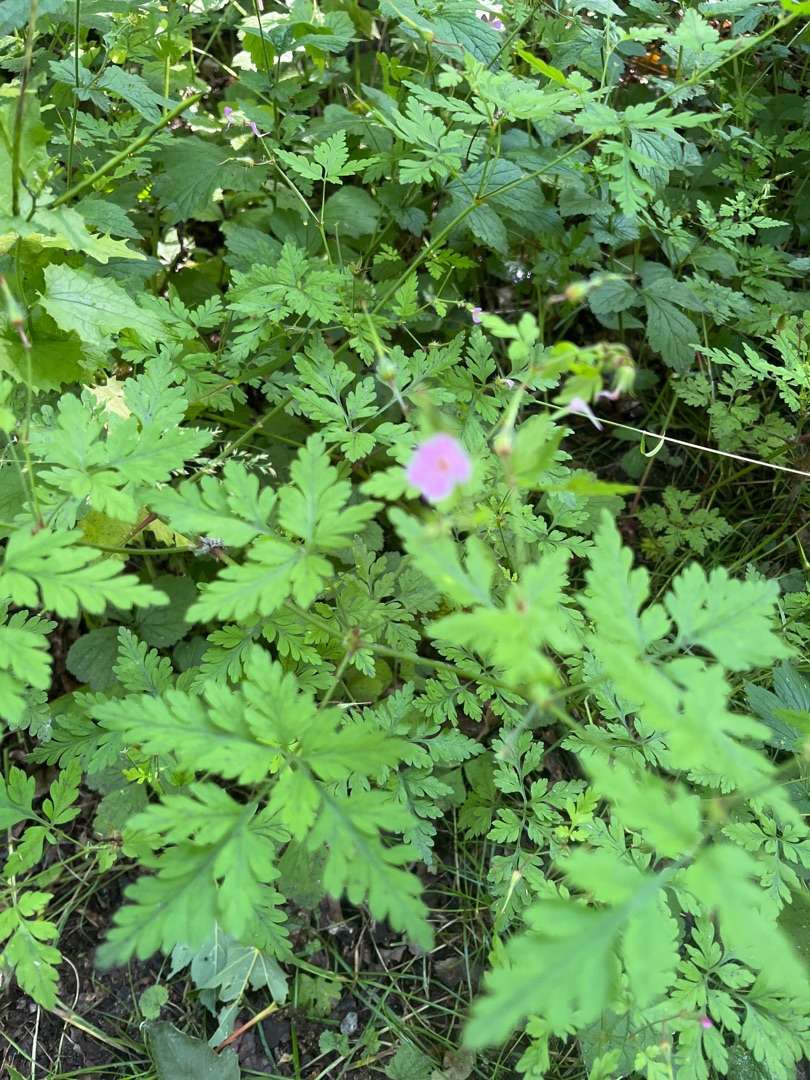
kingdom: Plantae
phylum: Tracheophyta
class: Magnoliopsida
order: Geraniales
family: Geraniaceae
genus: Geranium
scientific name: Geranium robertianum
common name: Stinkende storkenæb
